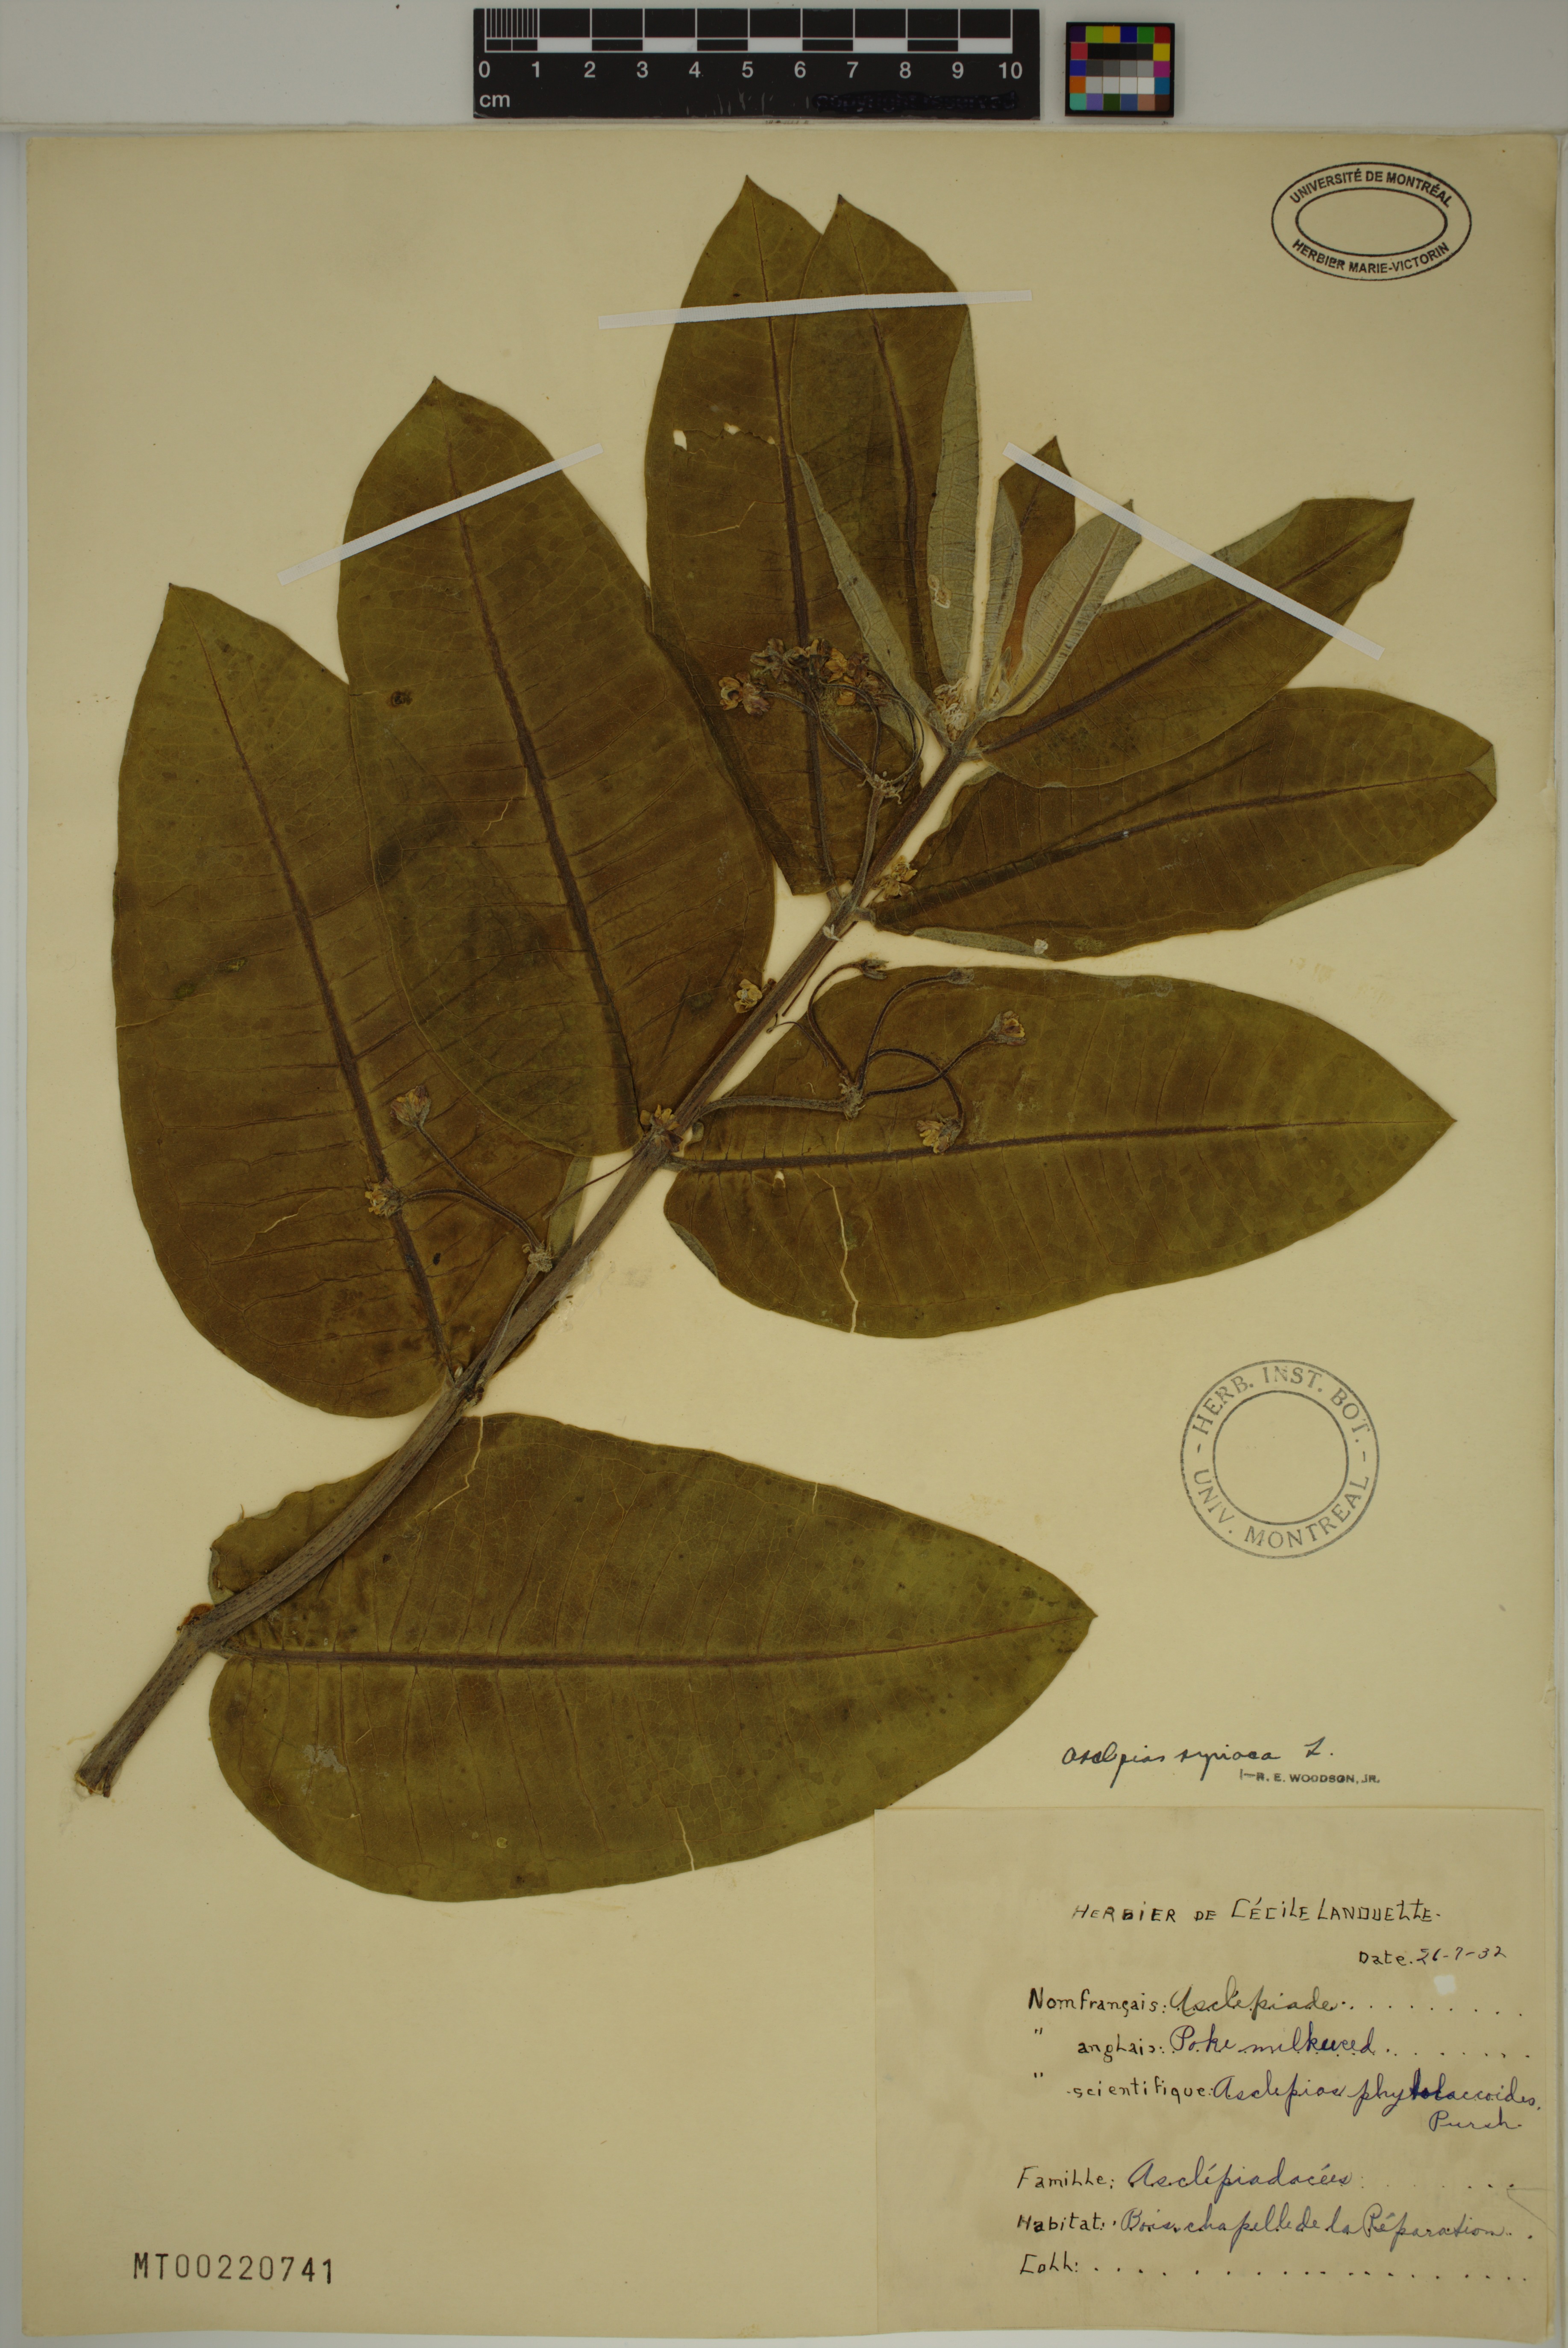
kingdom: Plantae
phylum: Tracheophyta
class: Magnoliopsida
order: Gentianales
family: Apocynaceae
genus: Asclepias
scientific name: Asclepias syriaca
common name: Common milkweed
